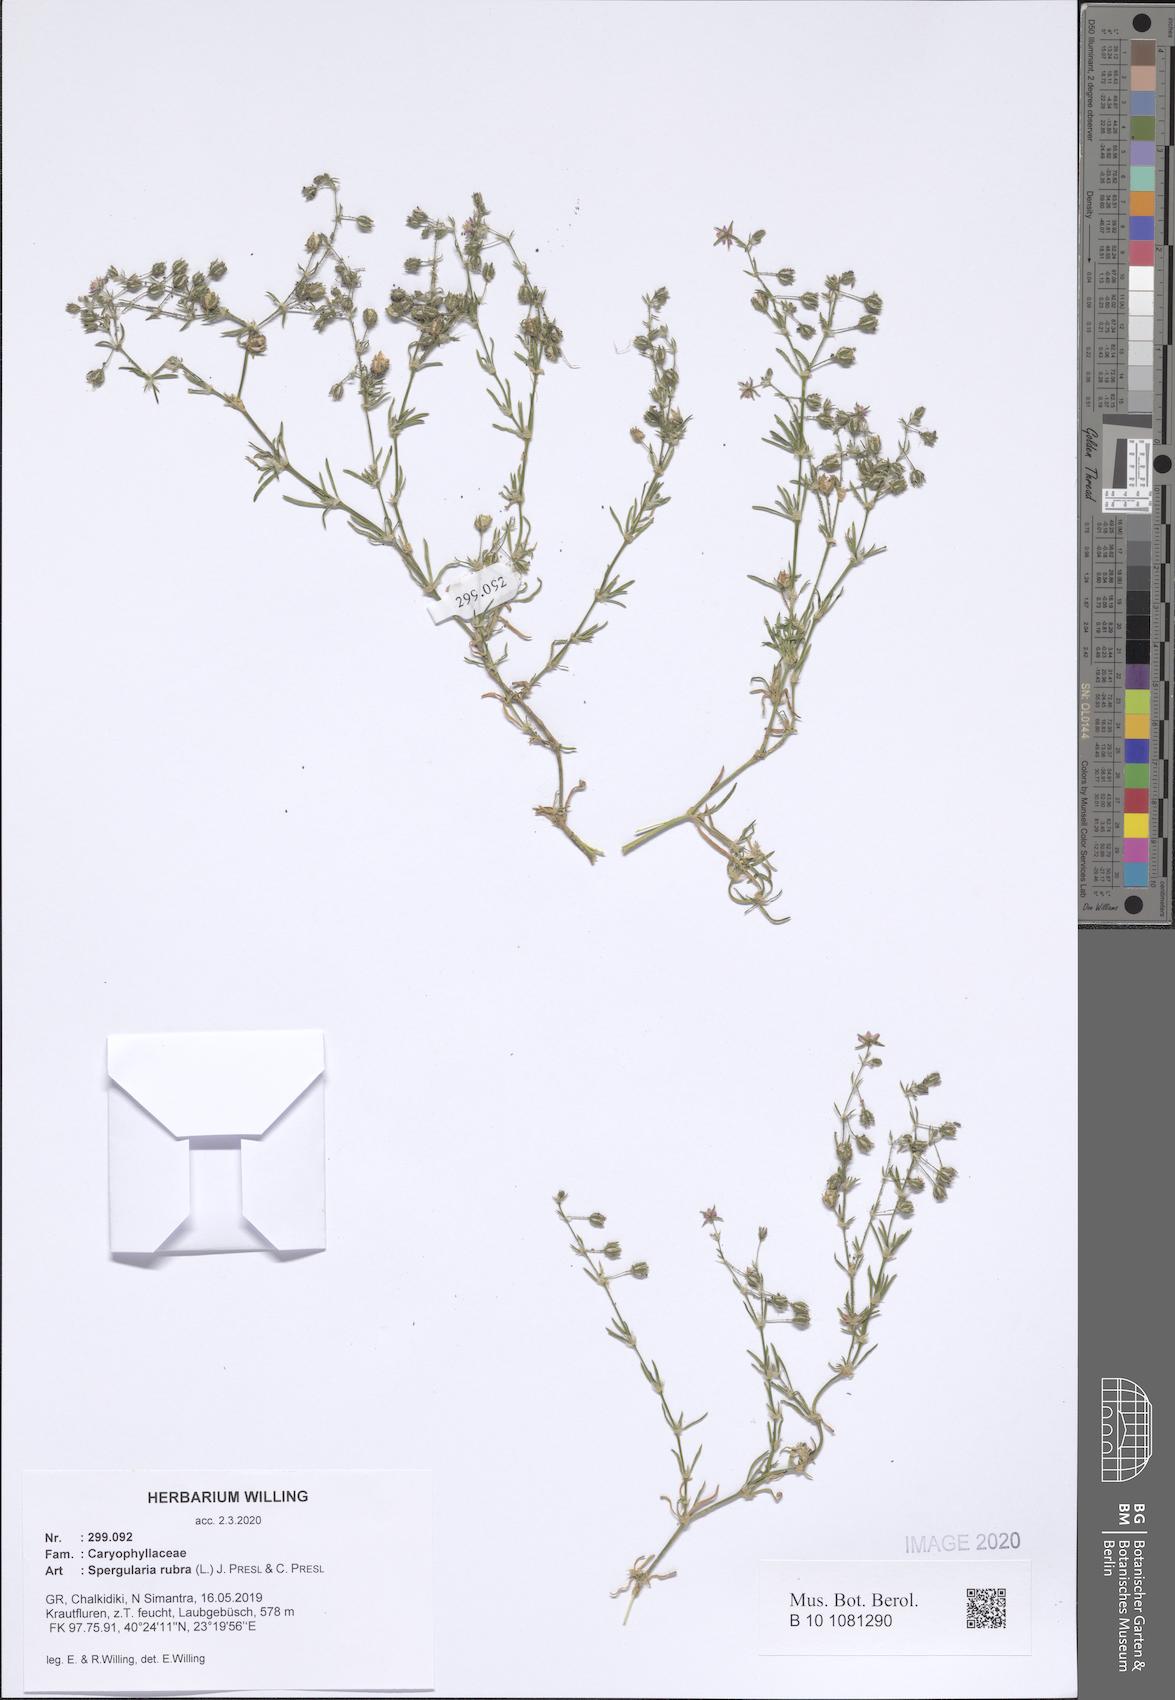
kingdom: Plantae
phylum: Tracheophyta
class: Magnoliopsida
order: Caryophyllales
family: Caryophyllaceae
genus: Spergularia
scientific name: Spergularia rubra
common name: Red sand-spurrey
